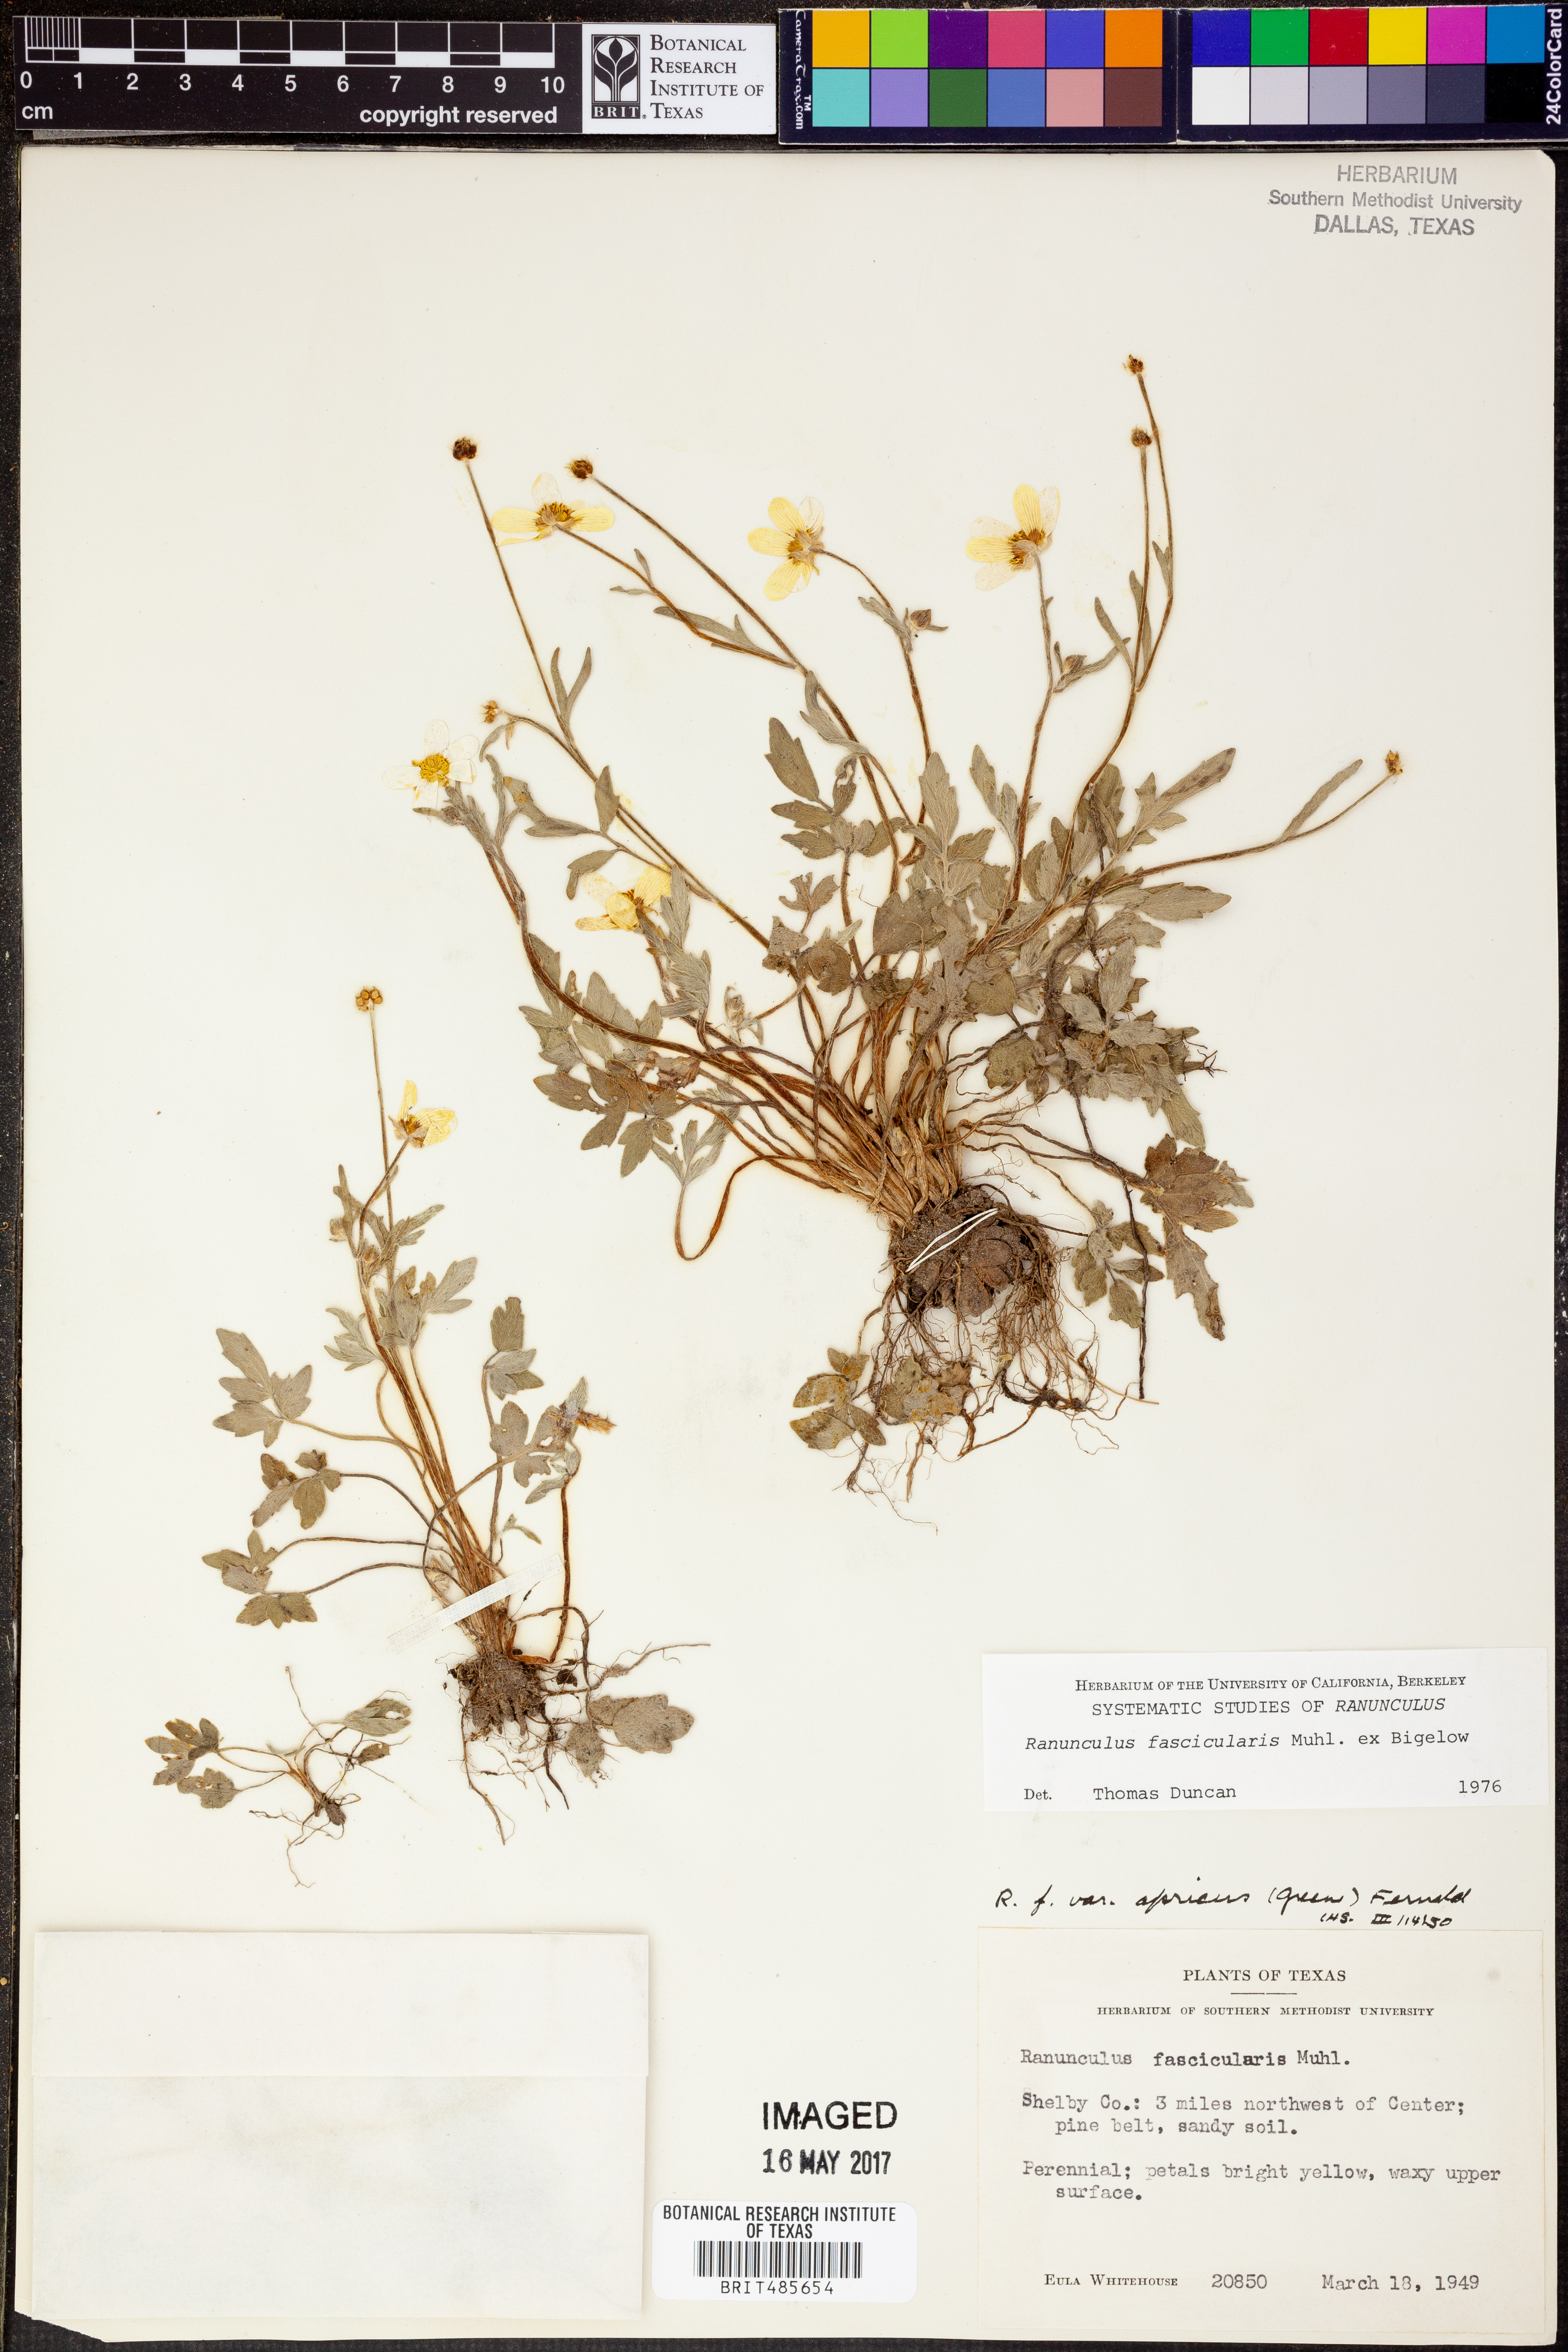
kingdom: Plantae
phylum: Tracheophyta
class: Magnoliopsida
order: Ranunculales
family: Ranunculaceae
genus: Ranunculus
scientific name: Ranunculus fascicularis
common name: Early buttercup
